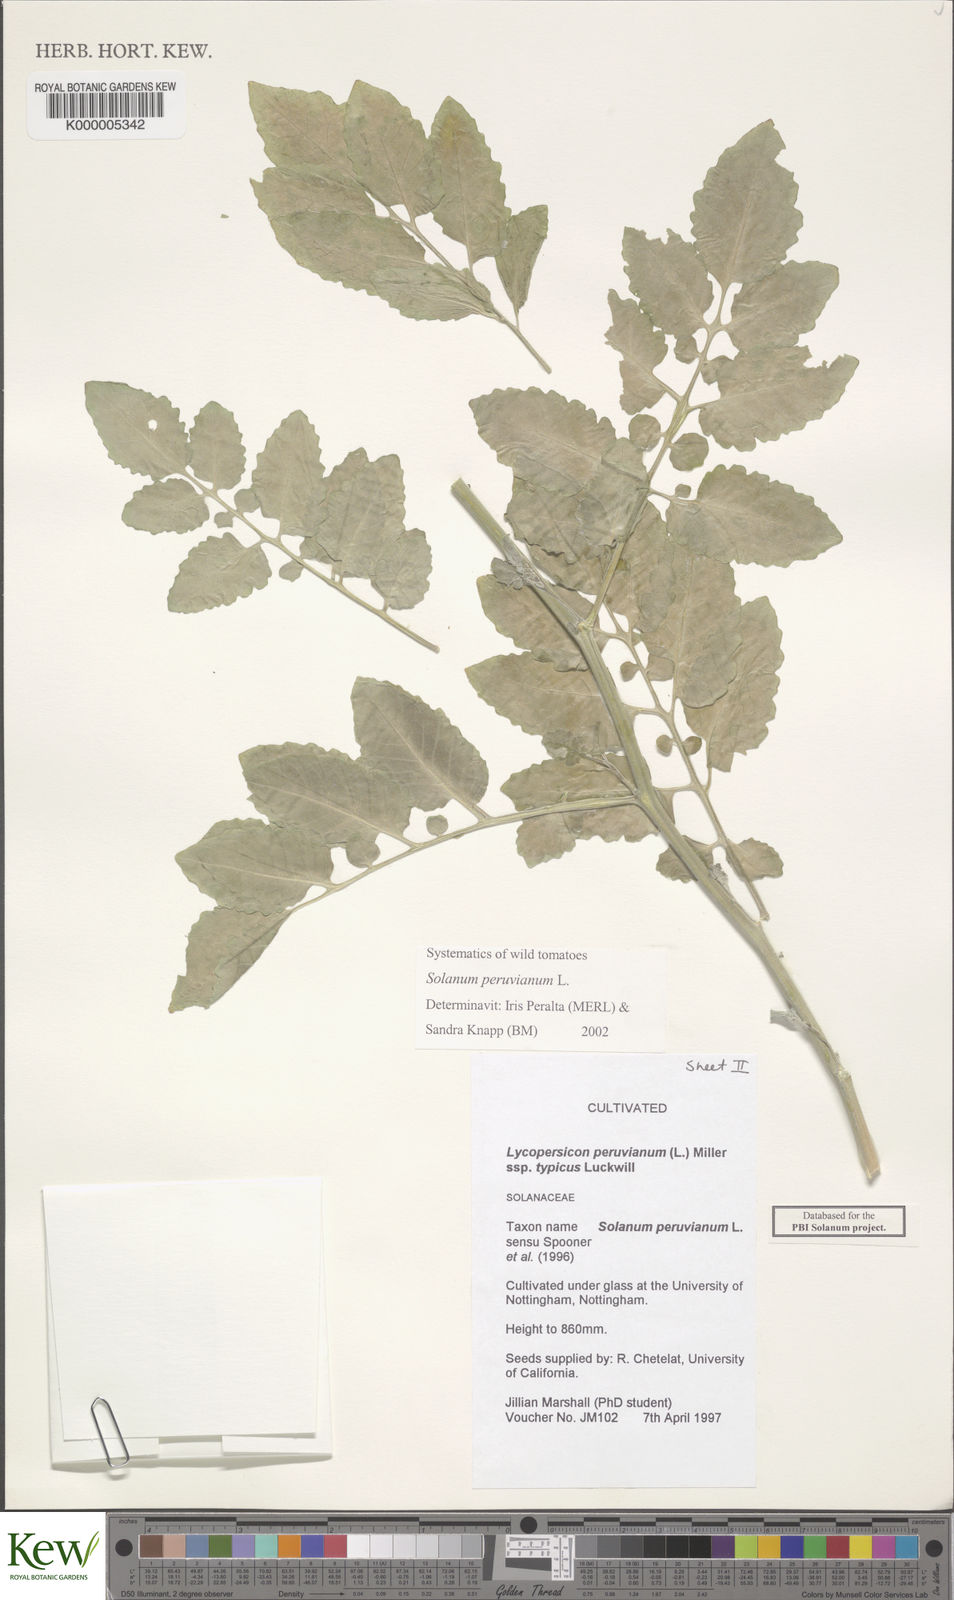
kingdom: Plantae
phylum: Tracheophyta
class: Magnoliopsida
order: Solanales
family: Solanaceae
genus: Solanum
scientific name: Solanum peruvianum
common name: Peruvian nightshade
